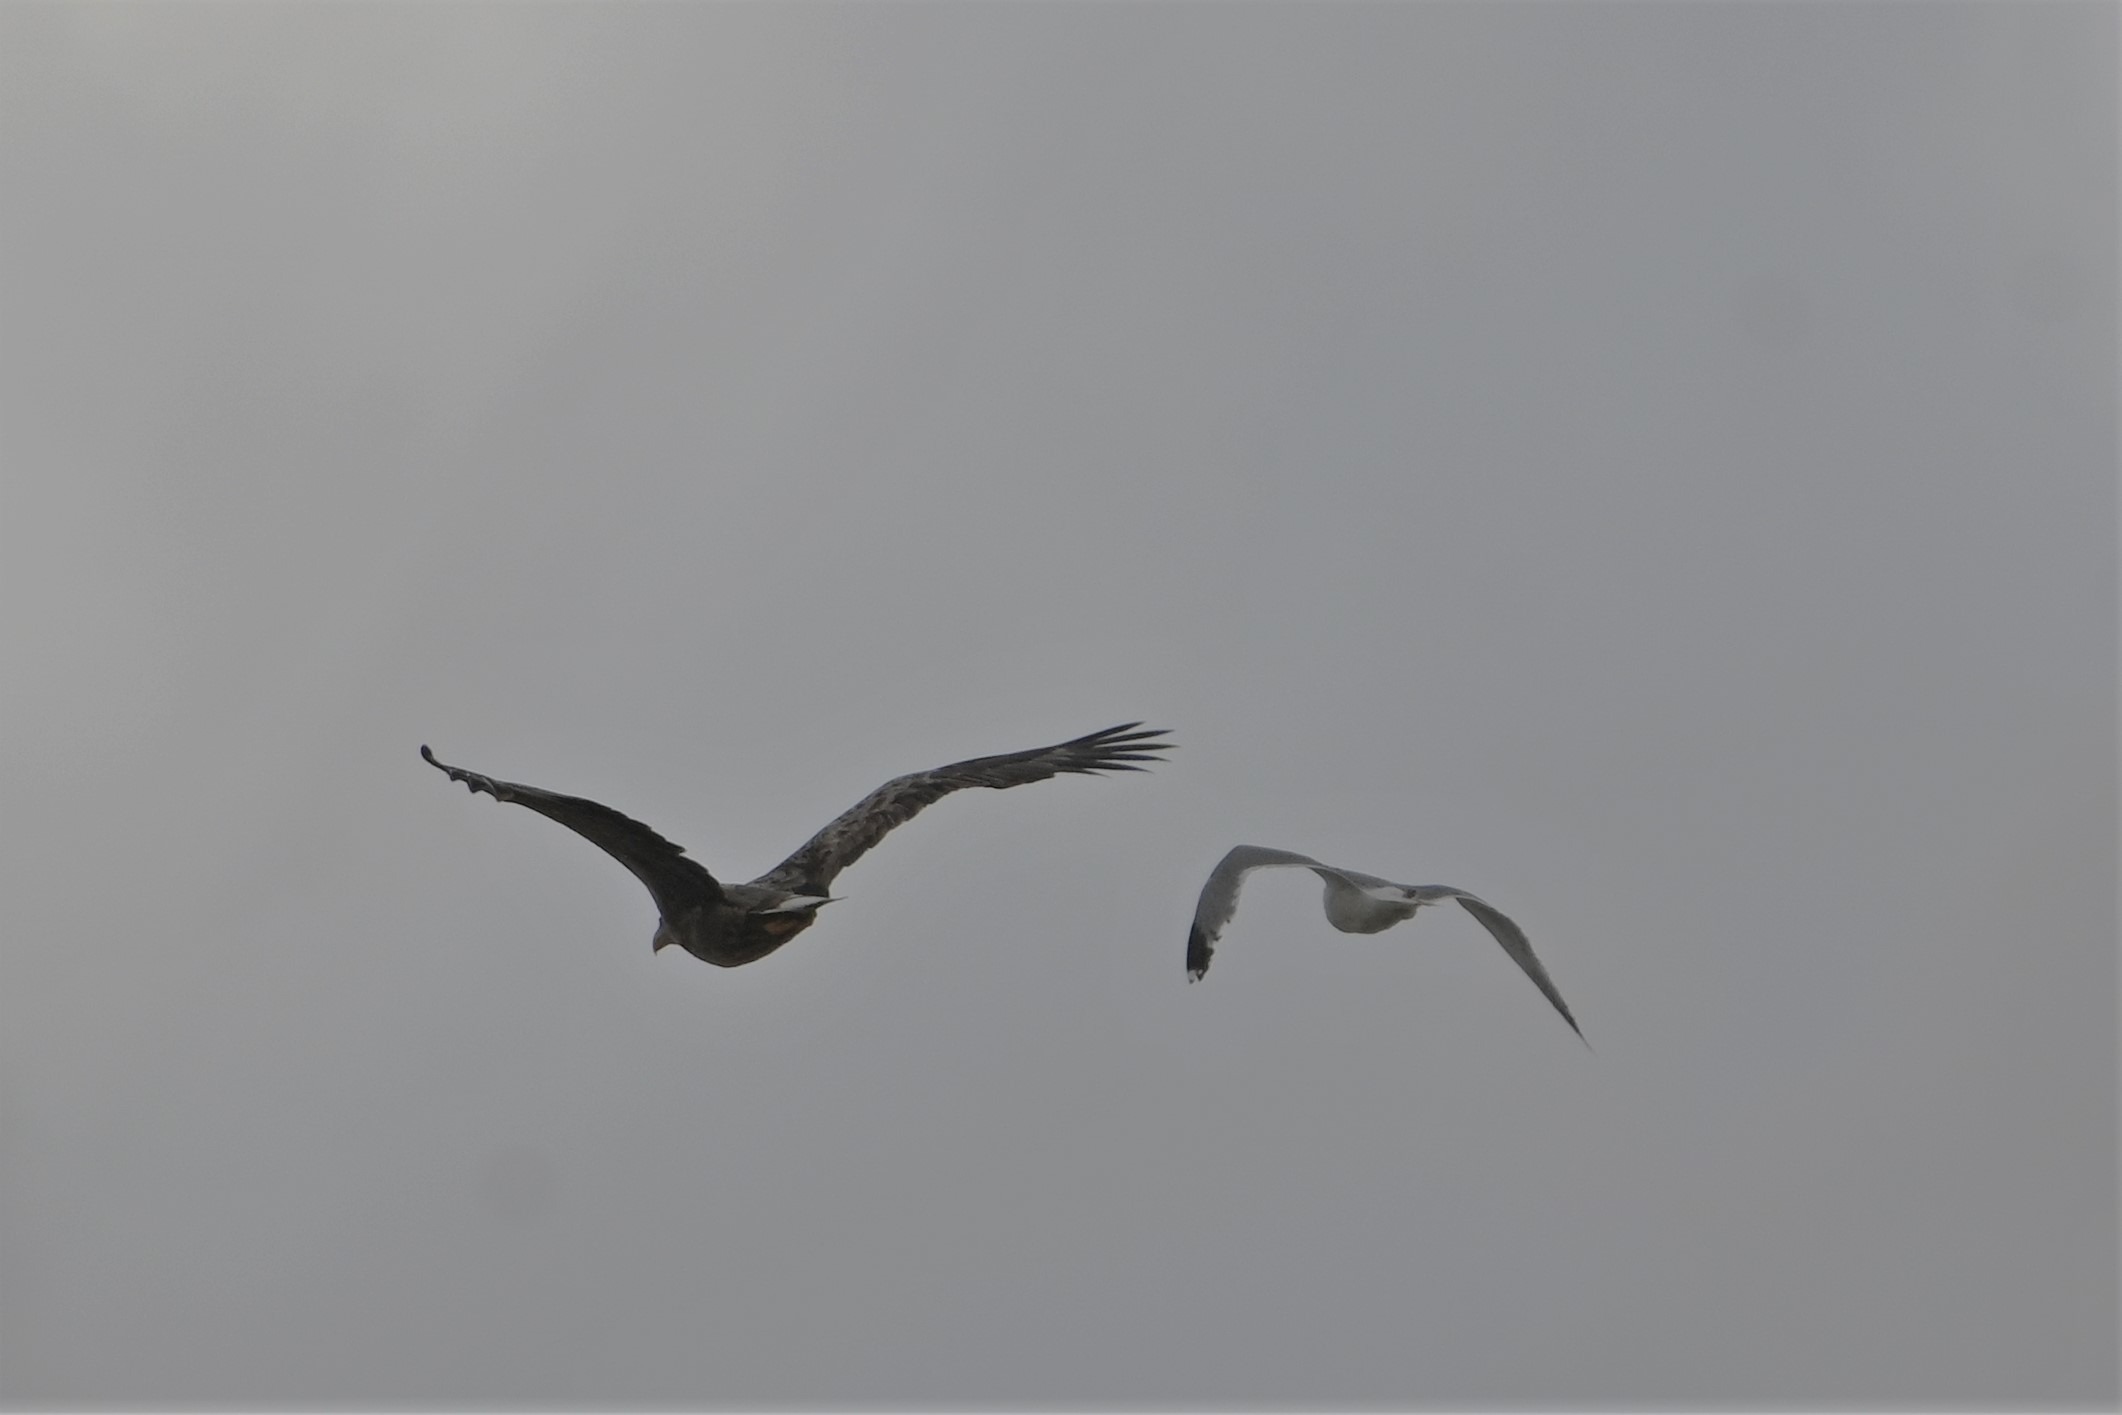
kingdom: Animalia
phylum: Chordata
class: Aves
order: Accipitriformes
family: Accipitridae
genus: Haliaeetus
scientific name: Haliaeetus albicilla
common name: Havørn
